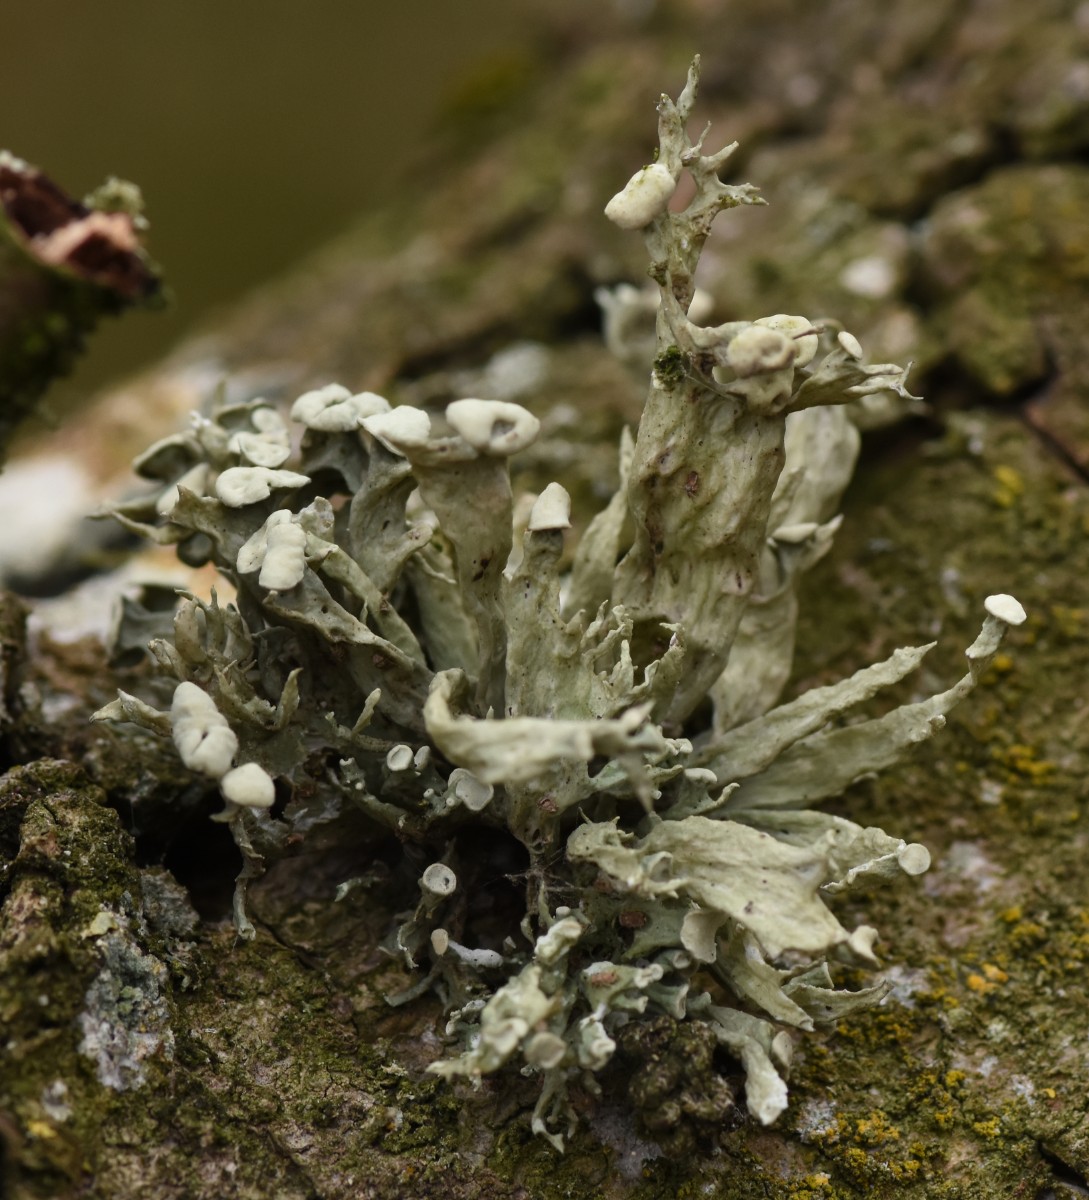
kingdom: Fungi
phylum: Ascomycota
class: Lecanoromycetes
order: Lecanorales
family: Ramalinaceae
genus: Ramalina
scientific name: Ramalina fastigiata
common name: tue-grenlav
